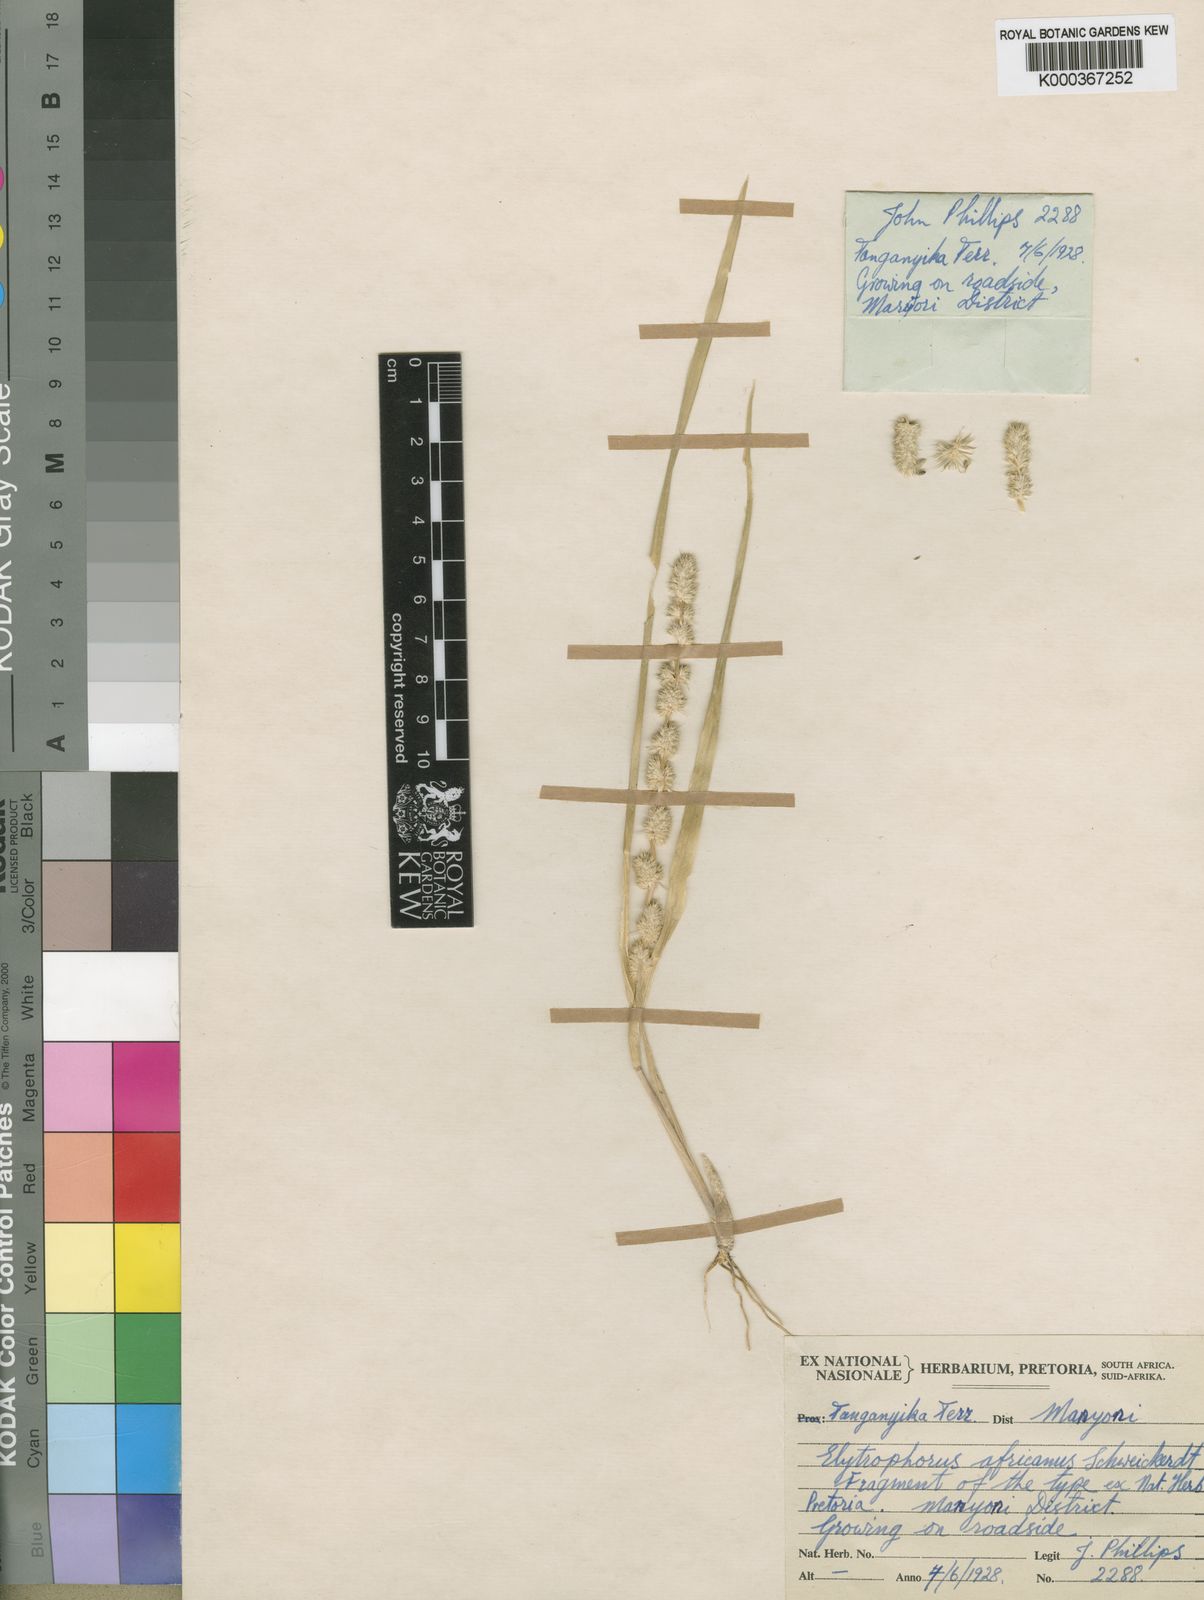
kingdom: Plantae
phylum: Tracheophyta
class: Liliopsida
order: Poales
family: Poaceae
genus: Elytrophorus
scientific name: Elytrophorus globularis
